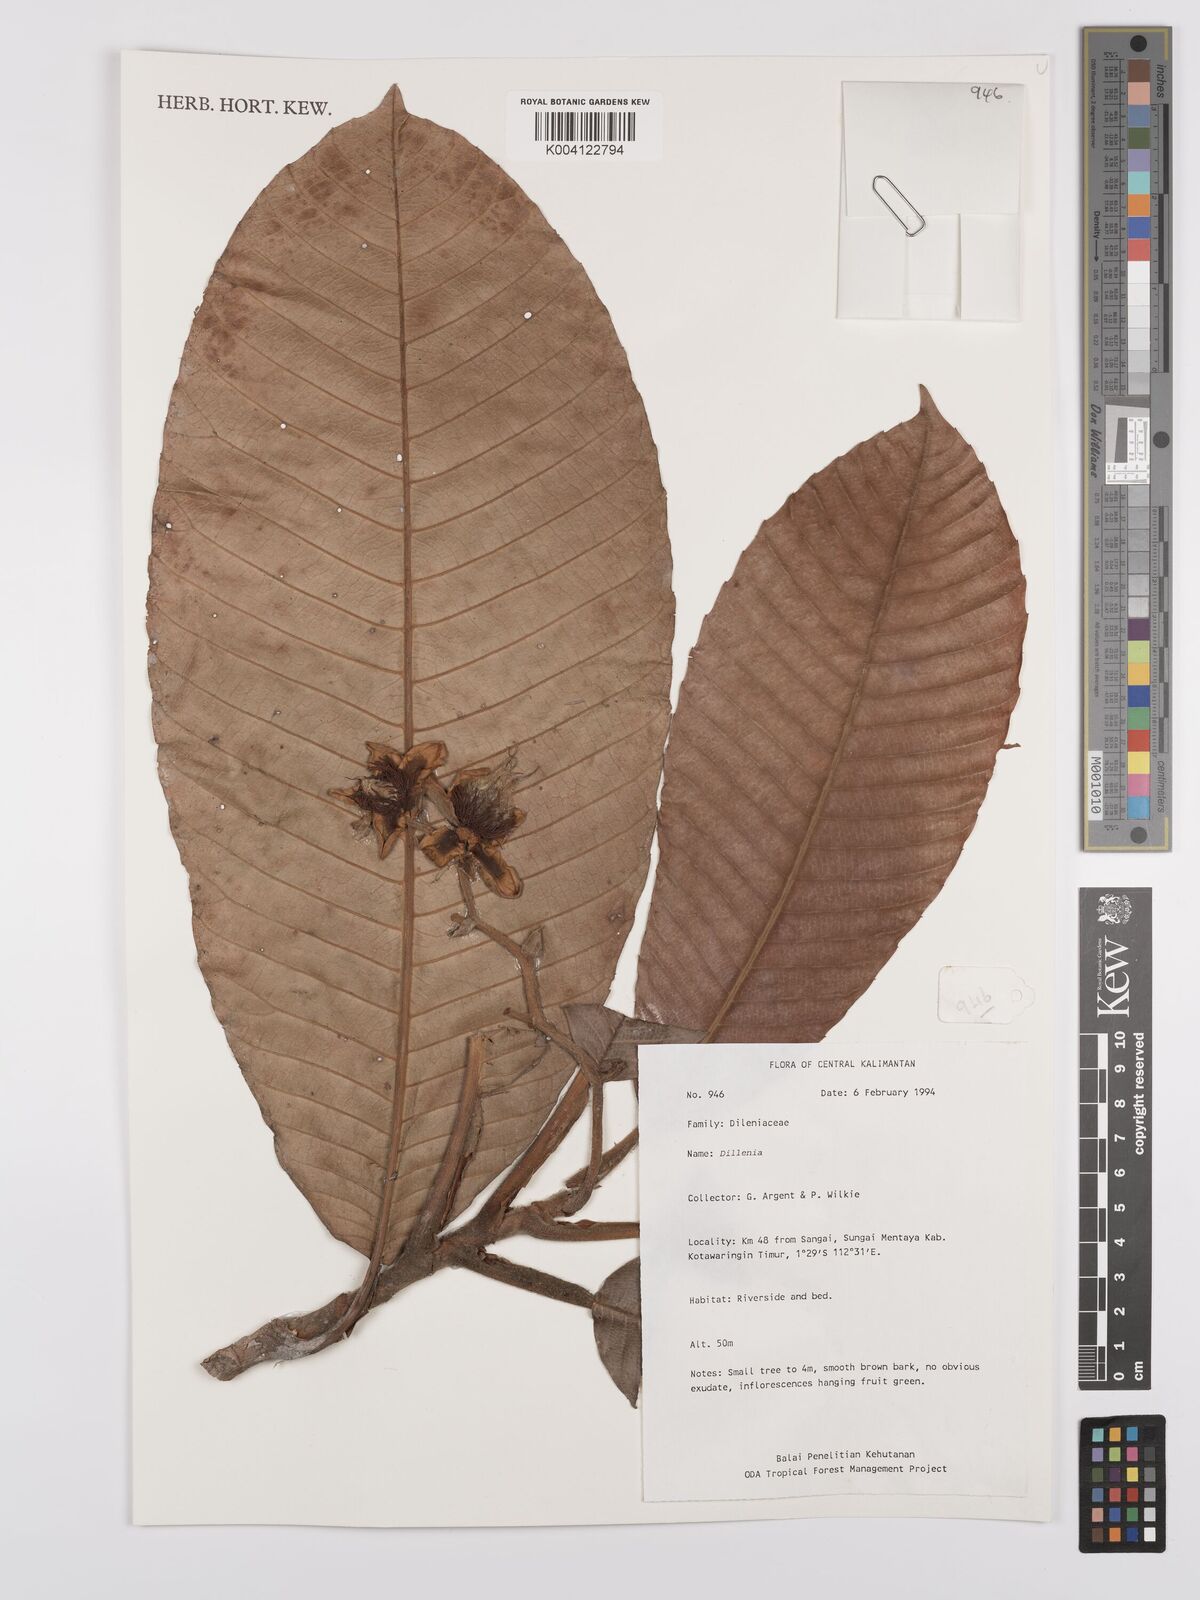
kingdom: Plantae
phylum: Tracheophyta
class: Magnoliopsida
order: Dilleniales
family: Dilleniaceae
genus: Dillenia
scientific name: Dillenia
